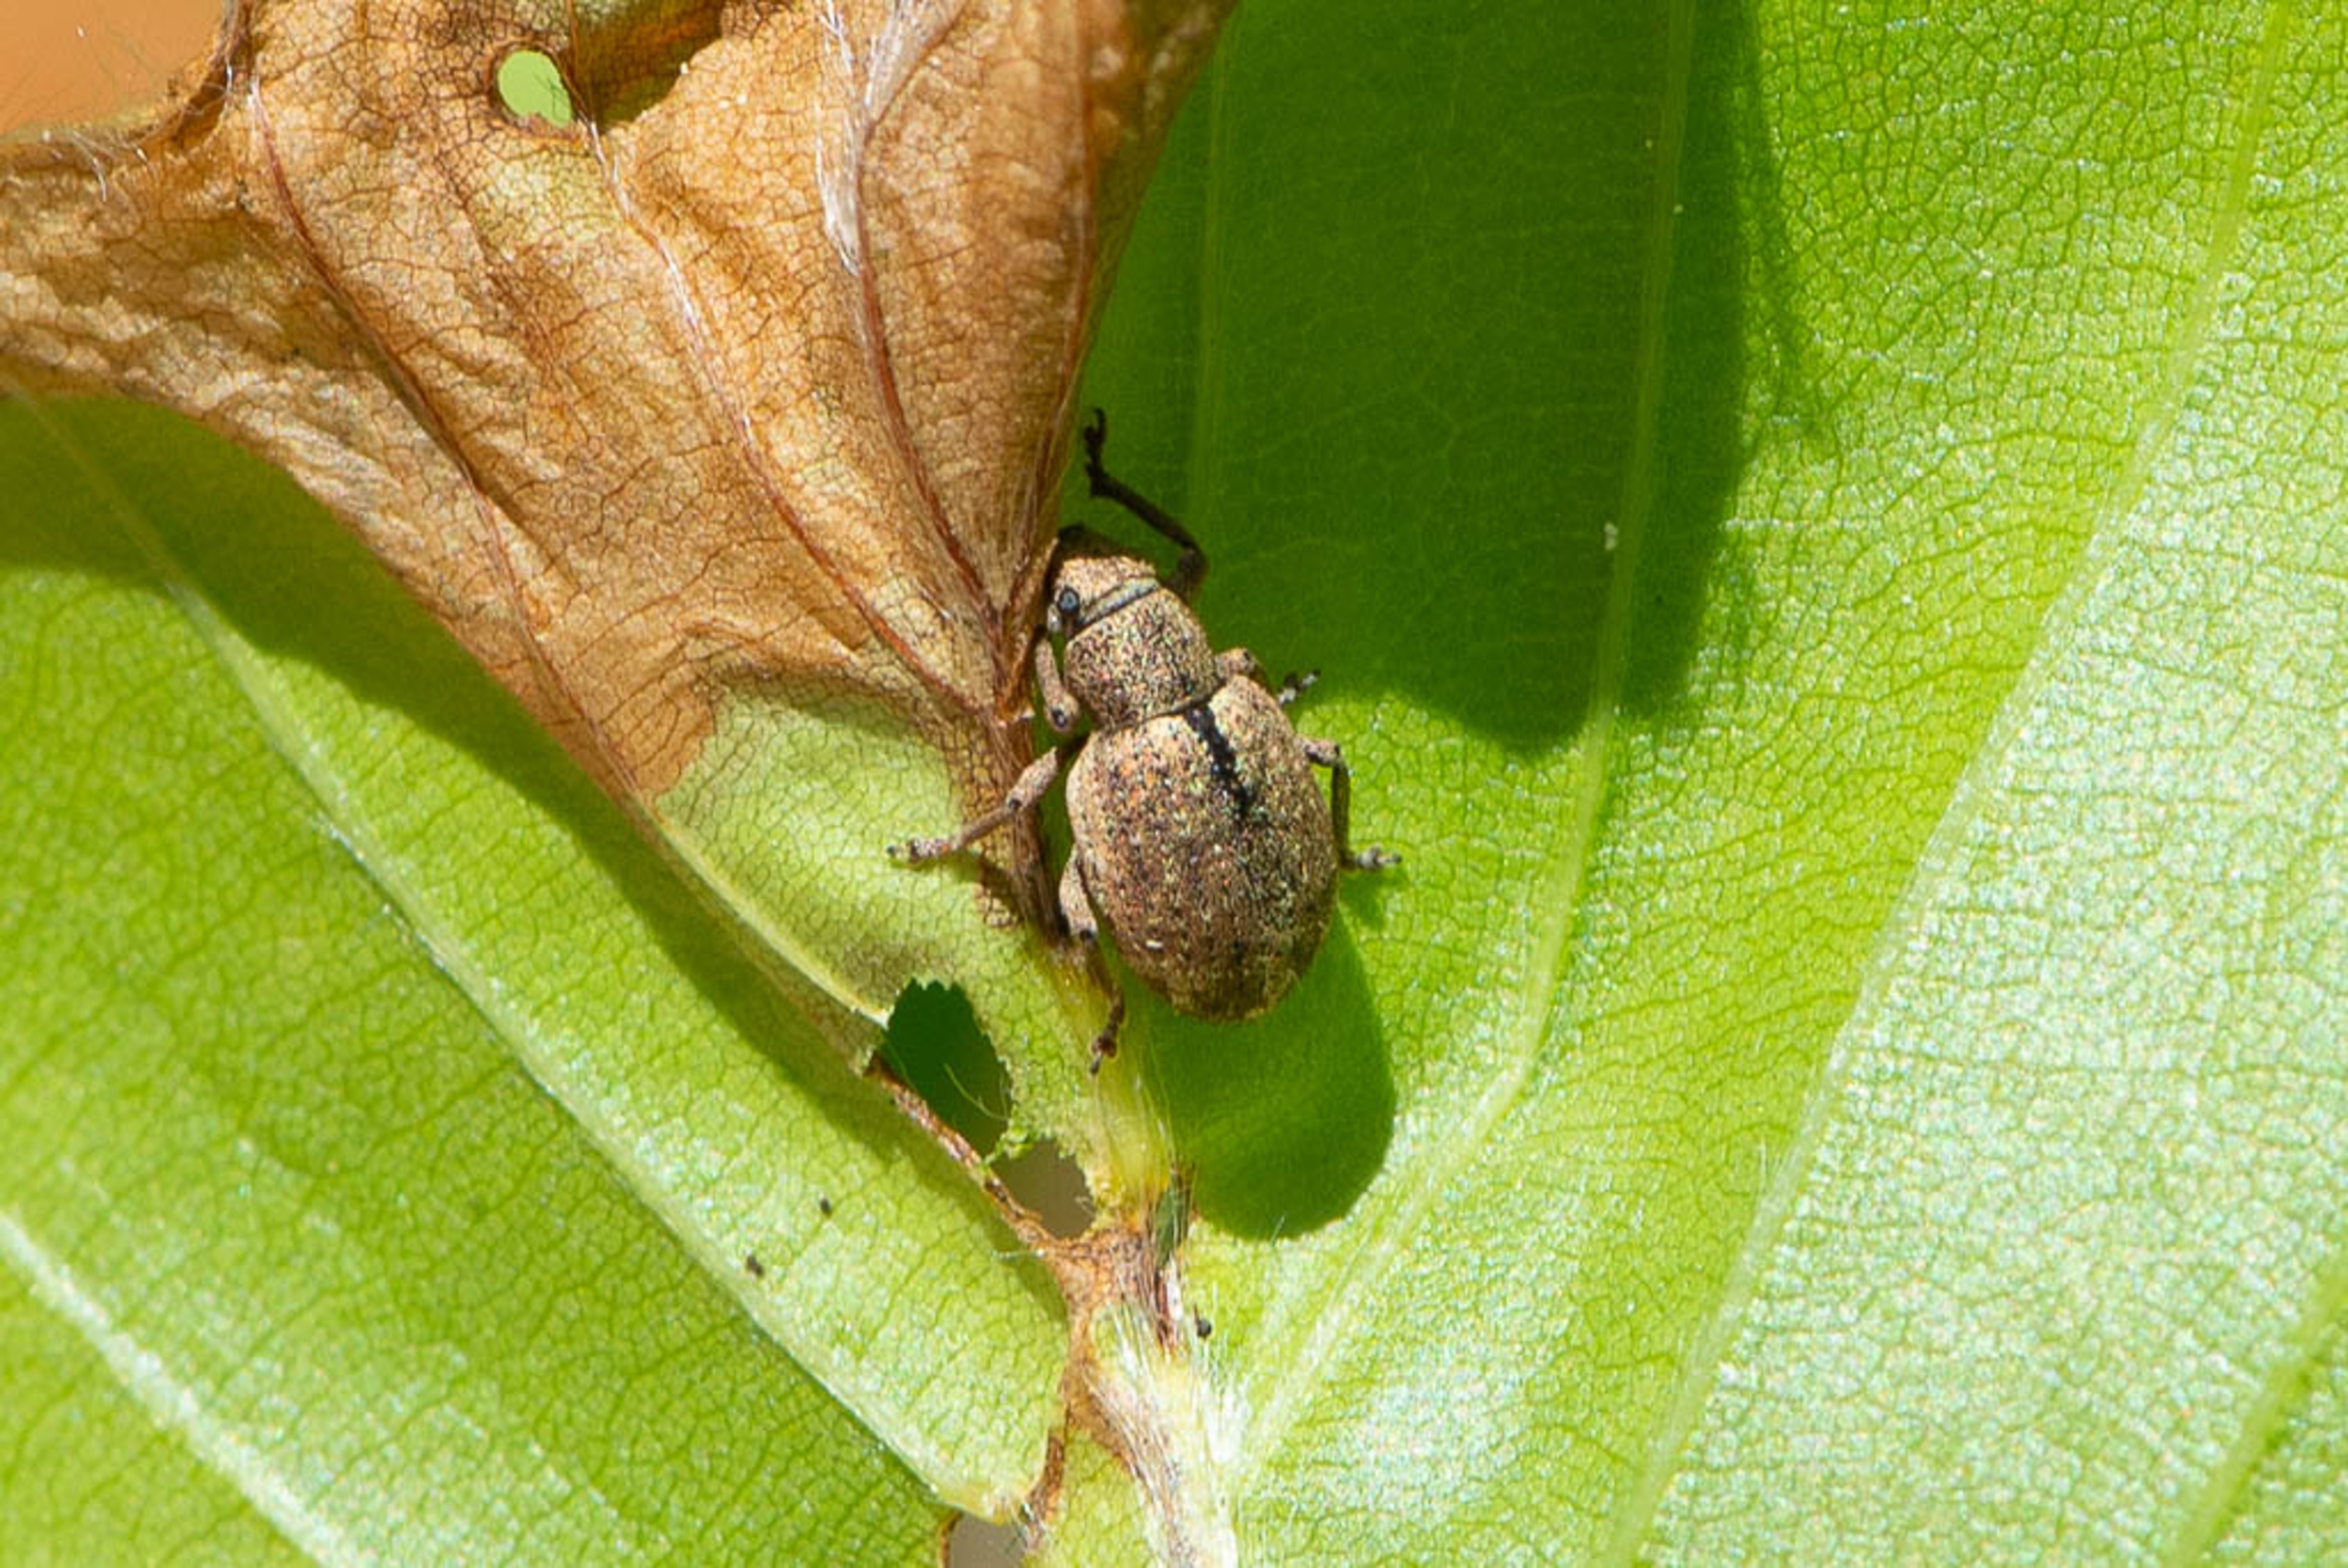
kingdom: Animalia
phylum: Arthropoda
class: Insecta
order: Coleoptera
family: Curculionidae
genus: Strophosoma
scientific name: Strophosoma melanogrammum
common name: Stribet gråsnude
